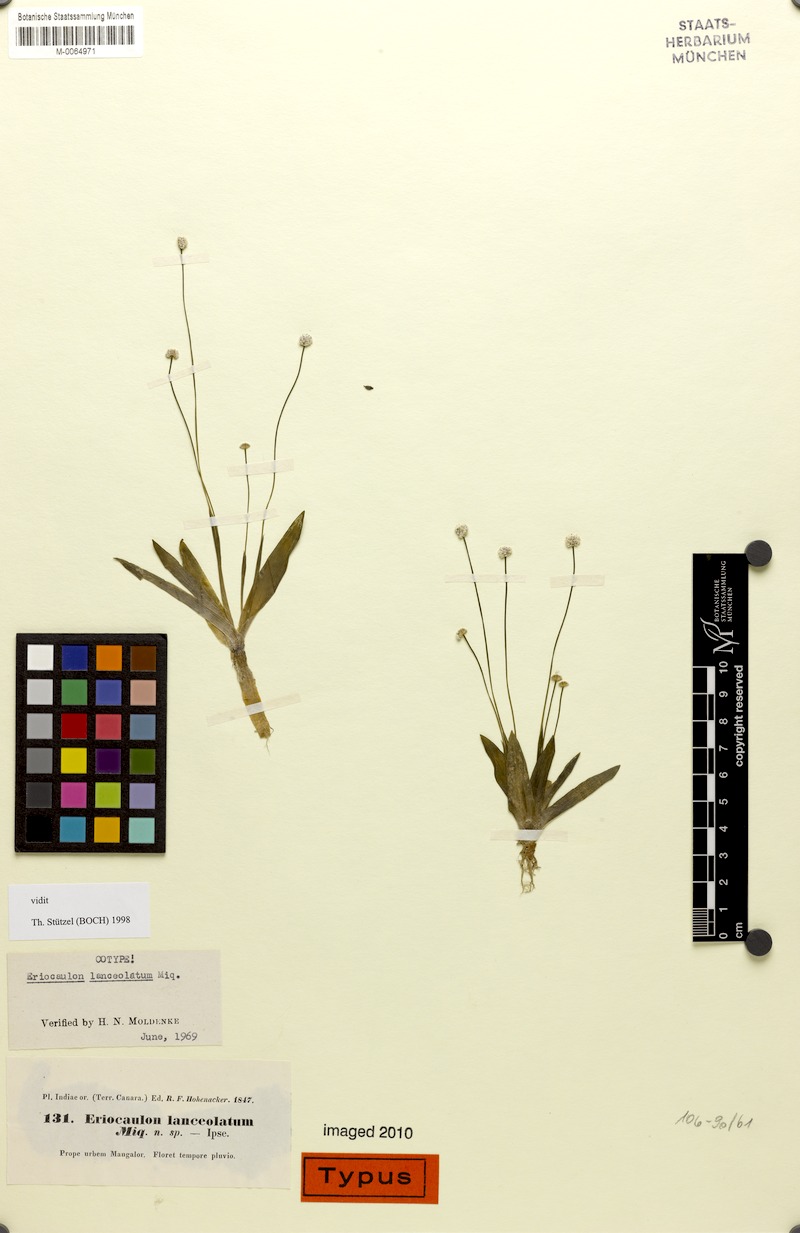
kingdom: Plantae
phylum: Tracheophyta
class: Liliopsida
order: Poales
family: Eriocaulaceae
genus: Eriocaulon
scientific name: Eriocaulon lanceolatum
